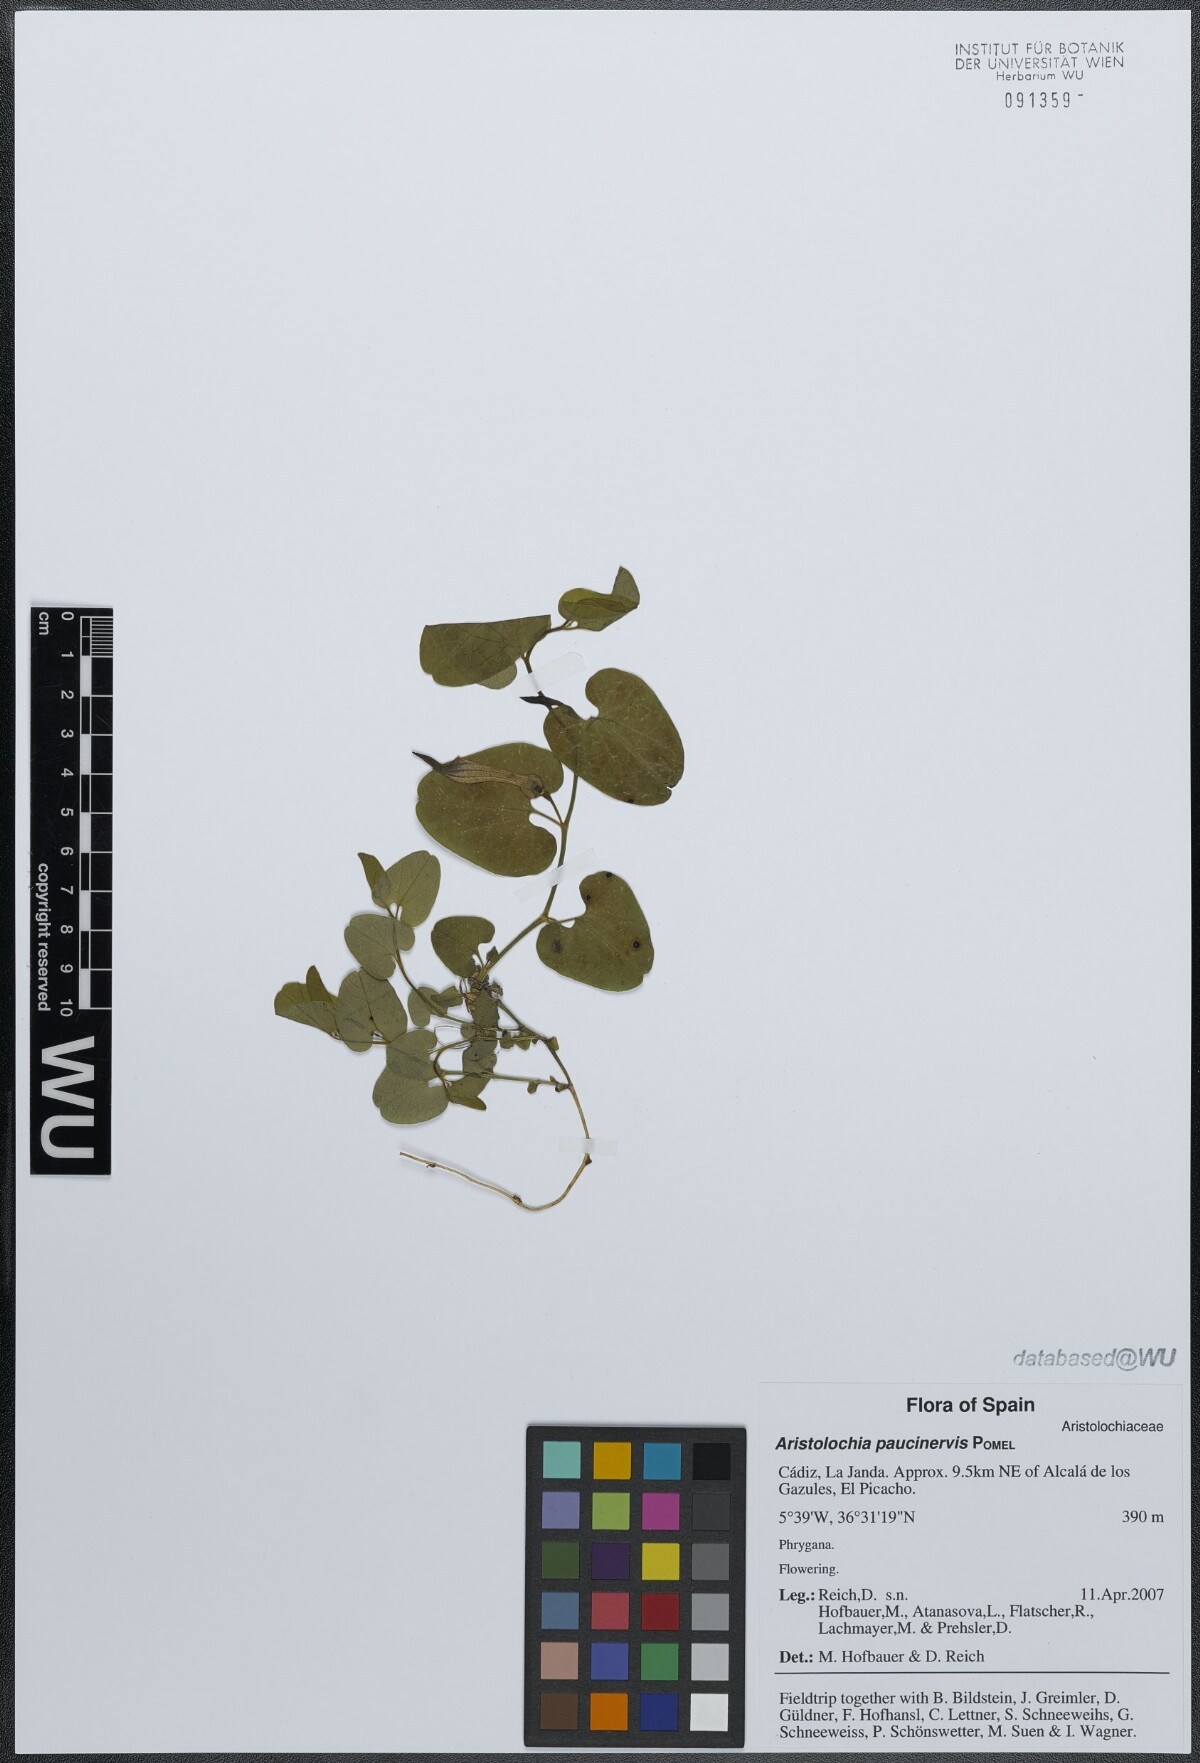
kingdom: Plantae
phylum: Tracheophyta
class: Magnoliopsida
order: Piperales
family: Aristolochiaceae
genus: Aristolochia
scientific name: Aristolochia paucinervis
